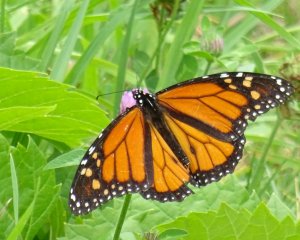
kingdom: Animalia
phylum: Arthropoda
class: Insecta
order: Lepidoptera
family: Nymphalidae
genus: Danaus
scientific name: Danaus plexippus
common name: Monarch
